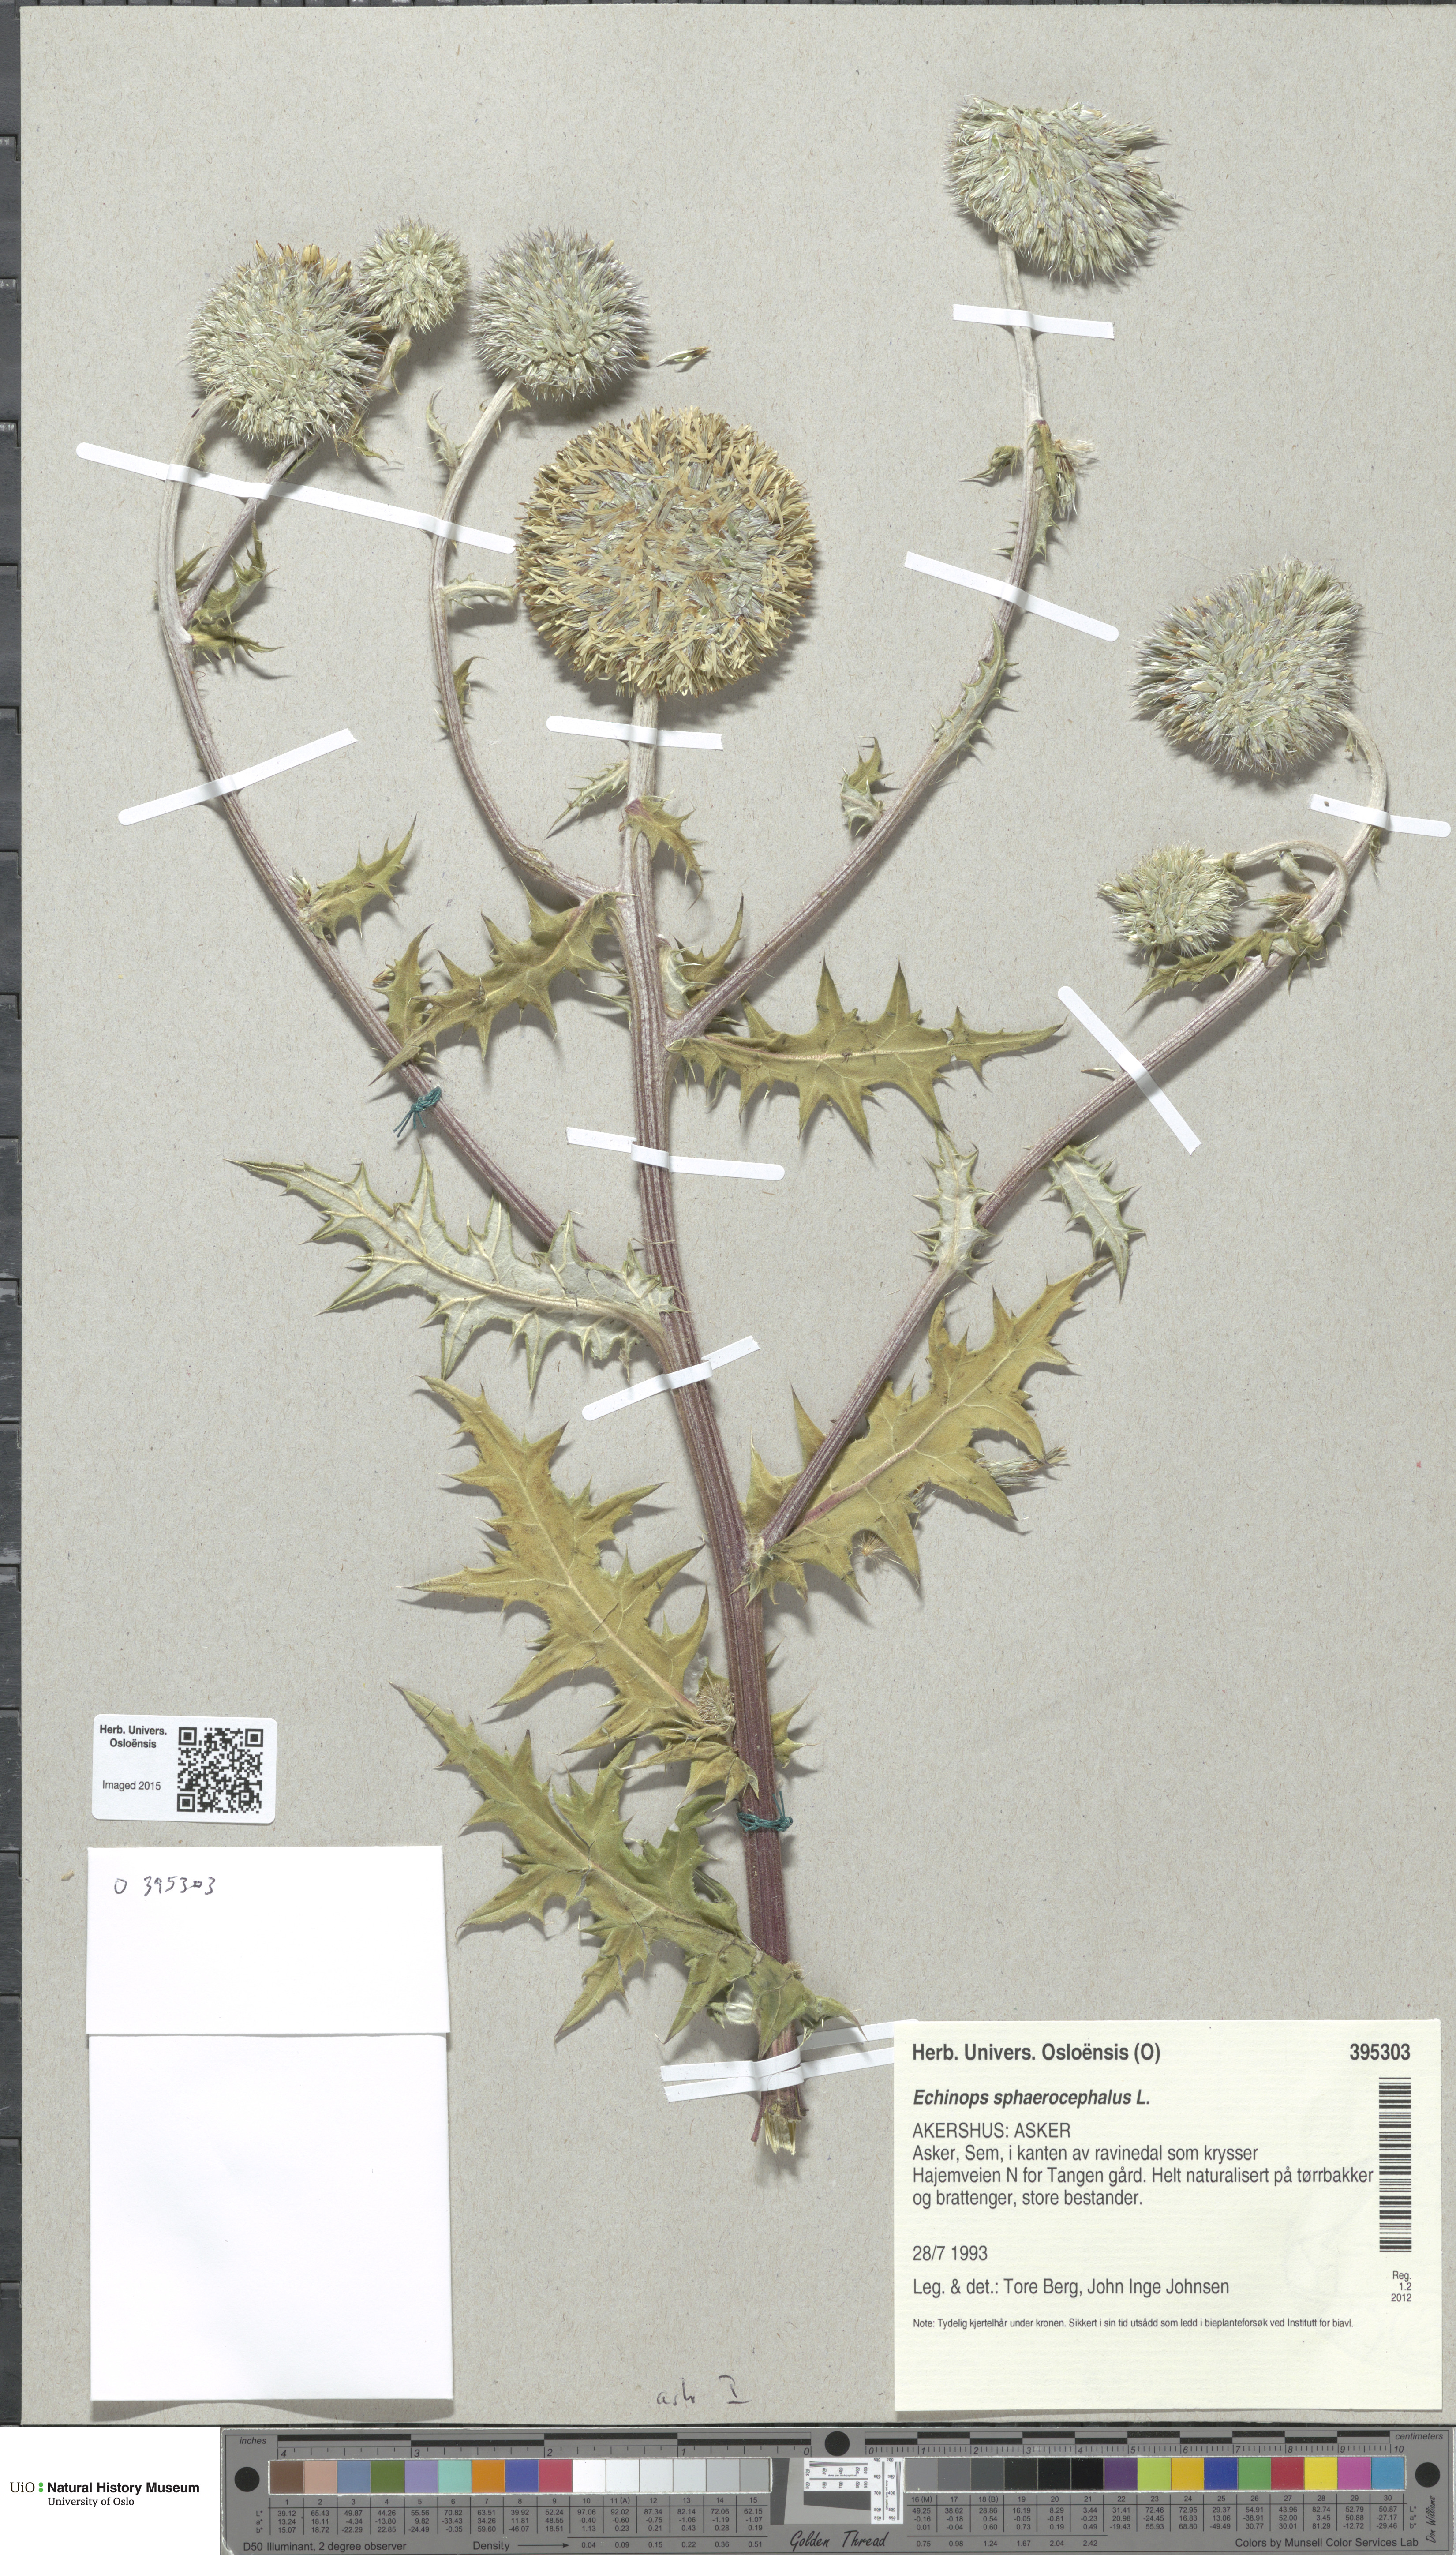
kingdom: Plantae
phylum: Tracheophyta
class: Magnoliopsida
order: Asterales
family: Asteraceae
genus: Echinops
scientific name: Echinops sphaerocephalus
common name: Glandular globe-thistle
